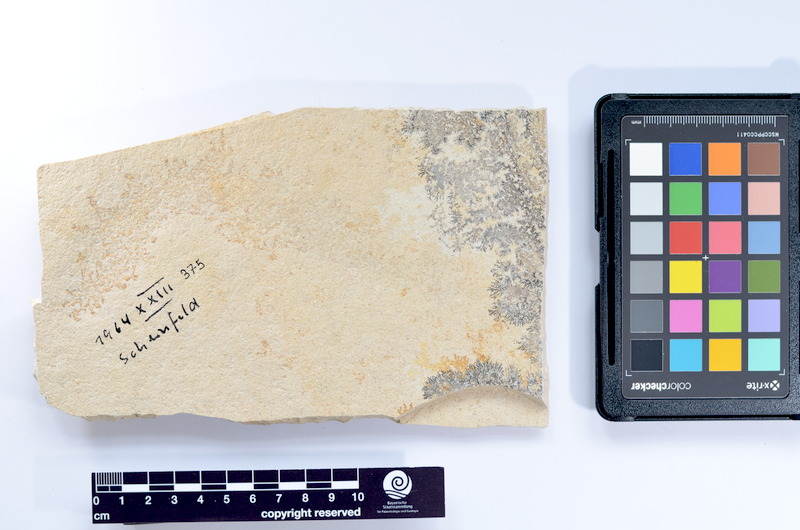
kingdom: Animalia
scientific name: Animalia
